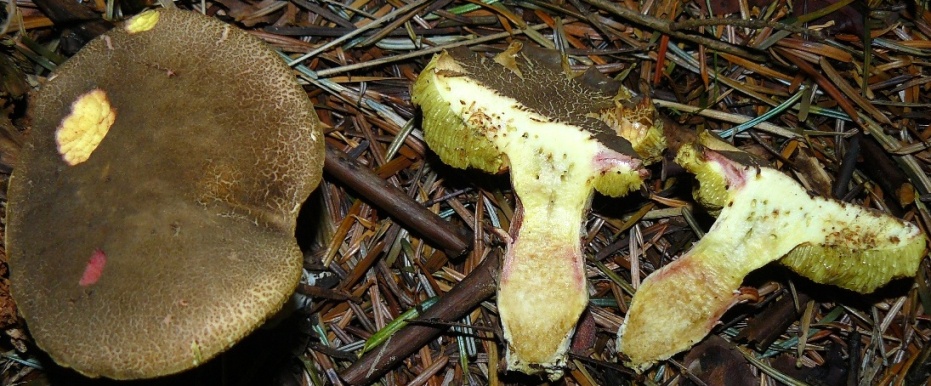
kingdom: Fungi
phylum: Basidiomycota
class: Agaricomycetes
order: Boletales
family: Boletaceae
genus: Xerocomellus
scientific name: Xerocomellus pruinatus
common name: dugget rørhat
